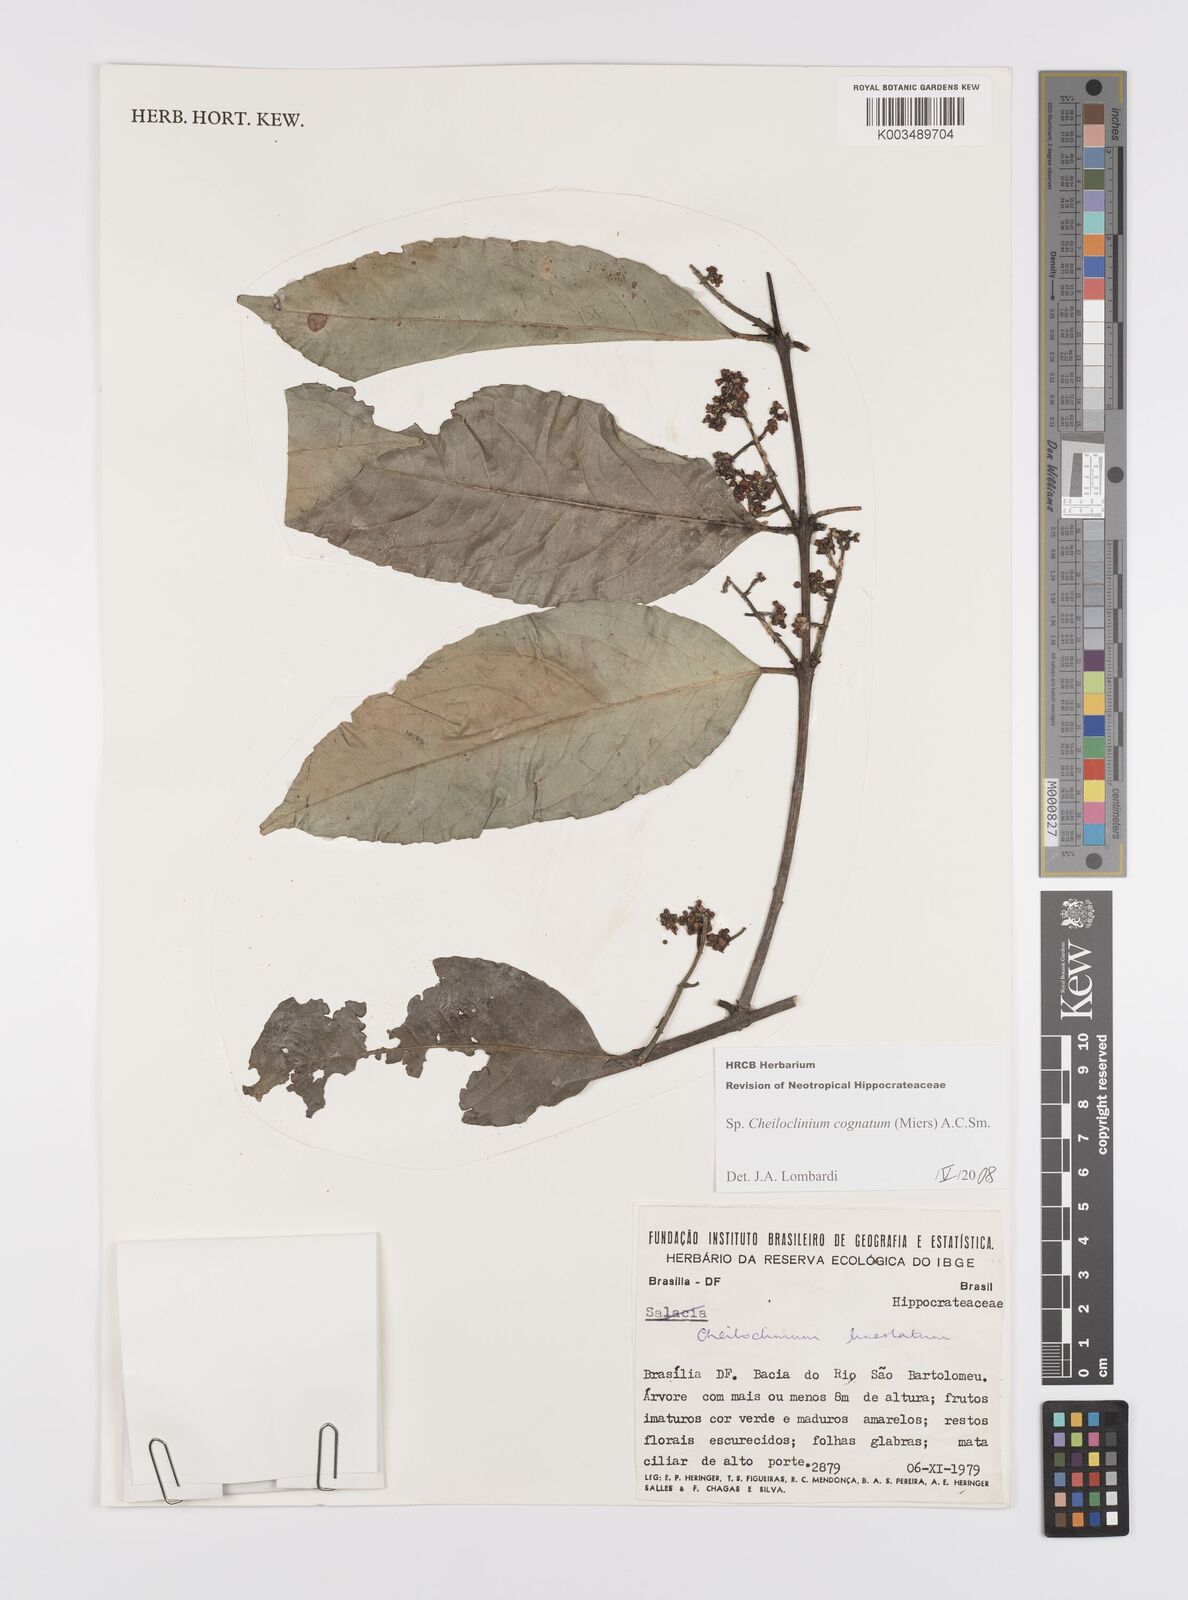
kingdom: Plantae
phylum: Tracheophyta
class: Magnoliopsida
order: Celastrales
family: Celastraceae
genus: Cheiloclinium
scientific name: Cheiloclinium cognatum
